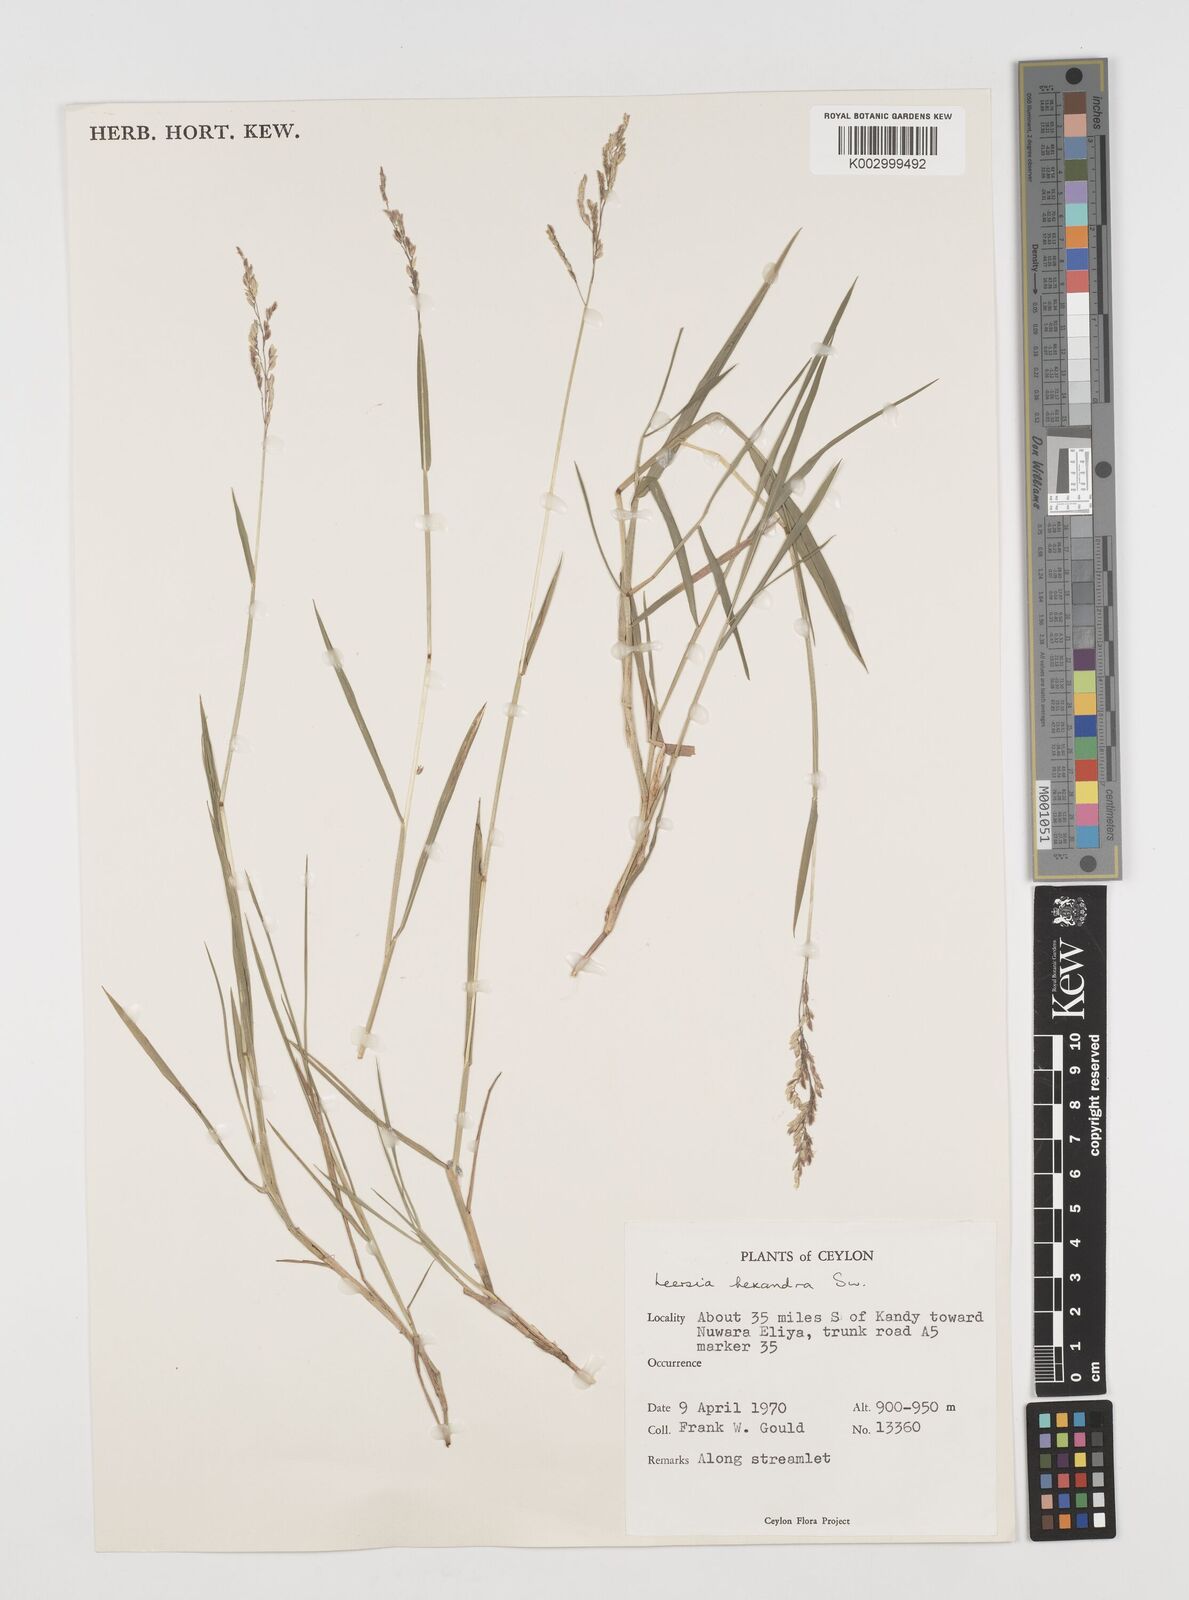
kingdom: Plantae
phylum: Tracheophyta
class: Liliopsida
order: Poales
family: Poaceae
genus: Leersia
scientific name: Leersia hexandra
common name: Southern cut grass
